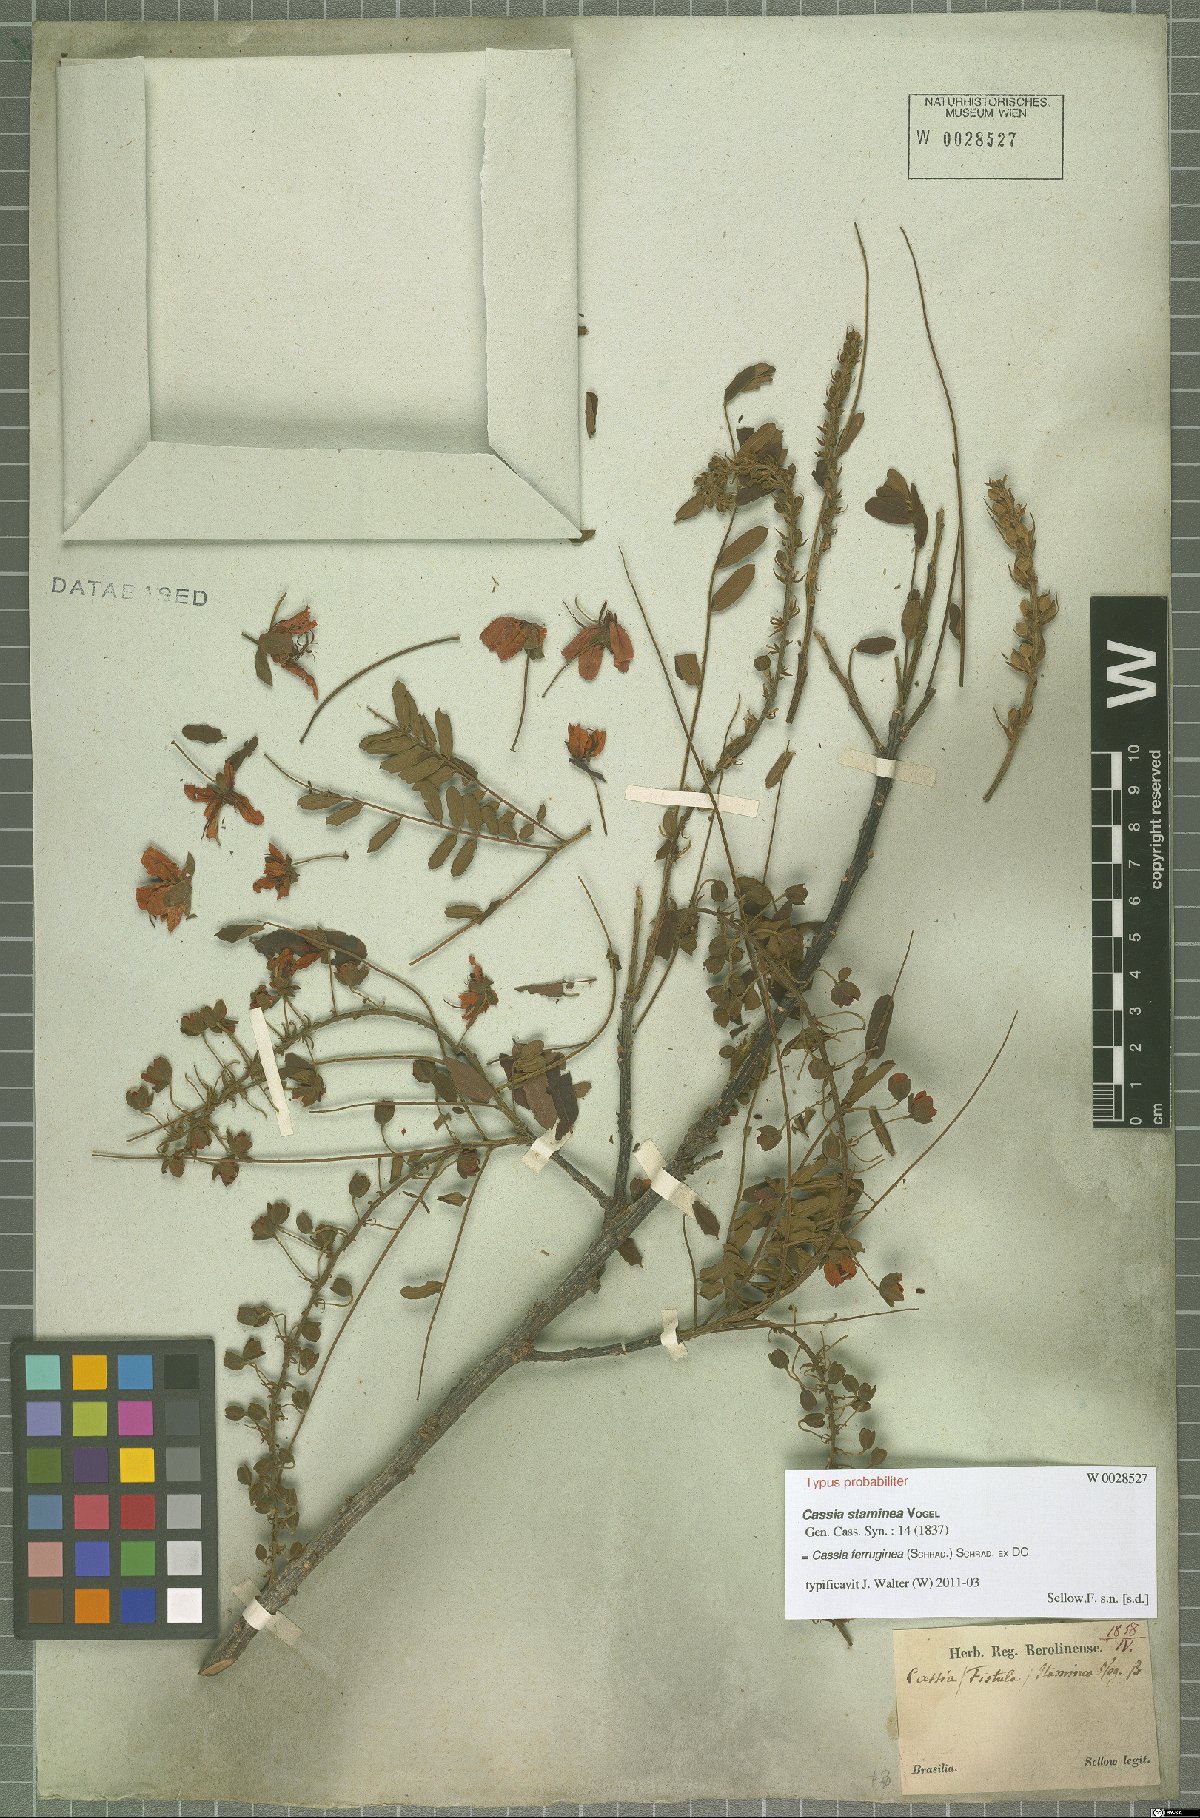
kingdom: Plantae
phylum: Tracheophyta
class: Magnoliopsida
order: Fabales
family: Fabaceae
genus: Cassia
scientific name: Cassia ferruginea
